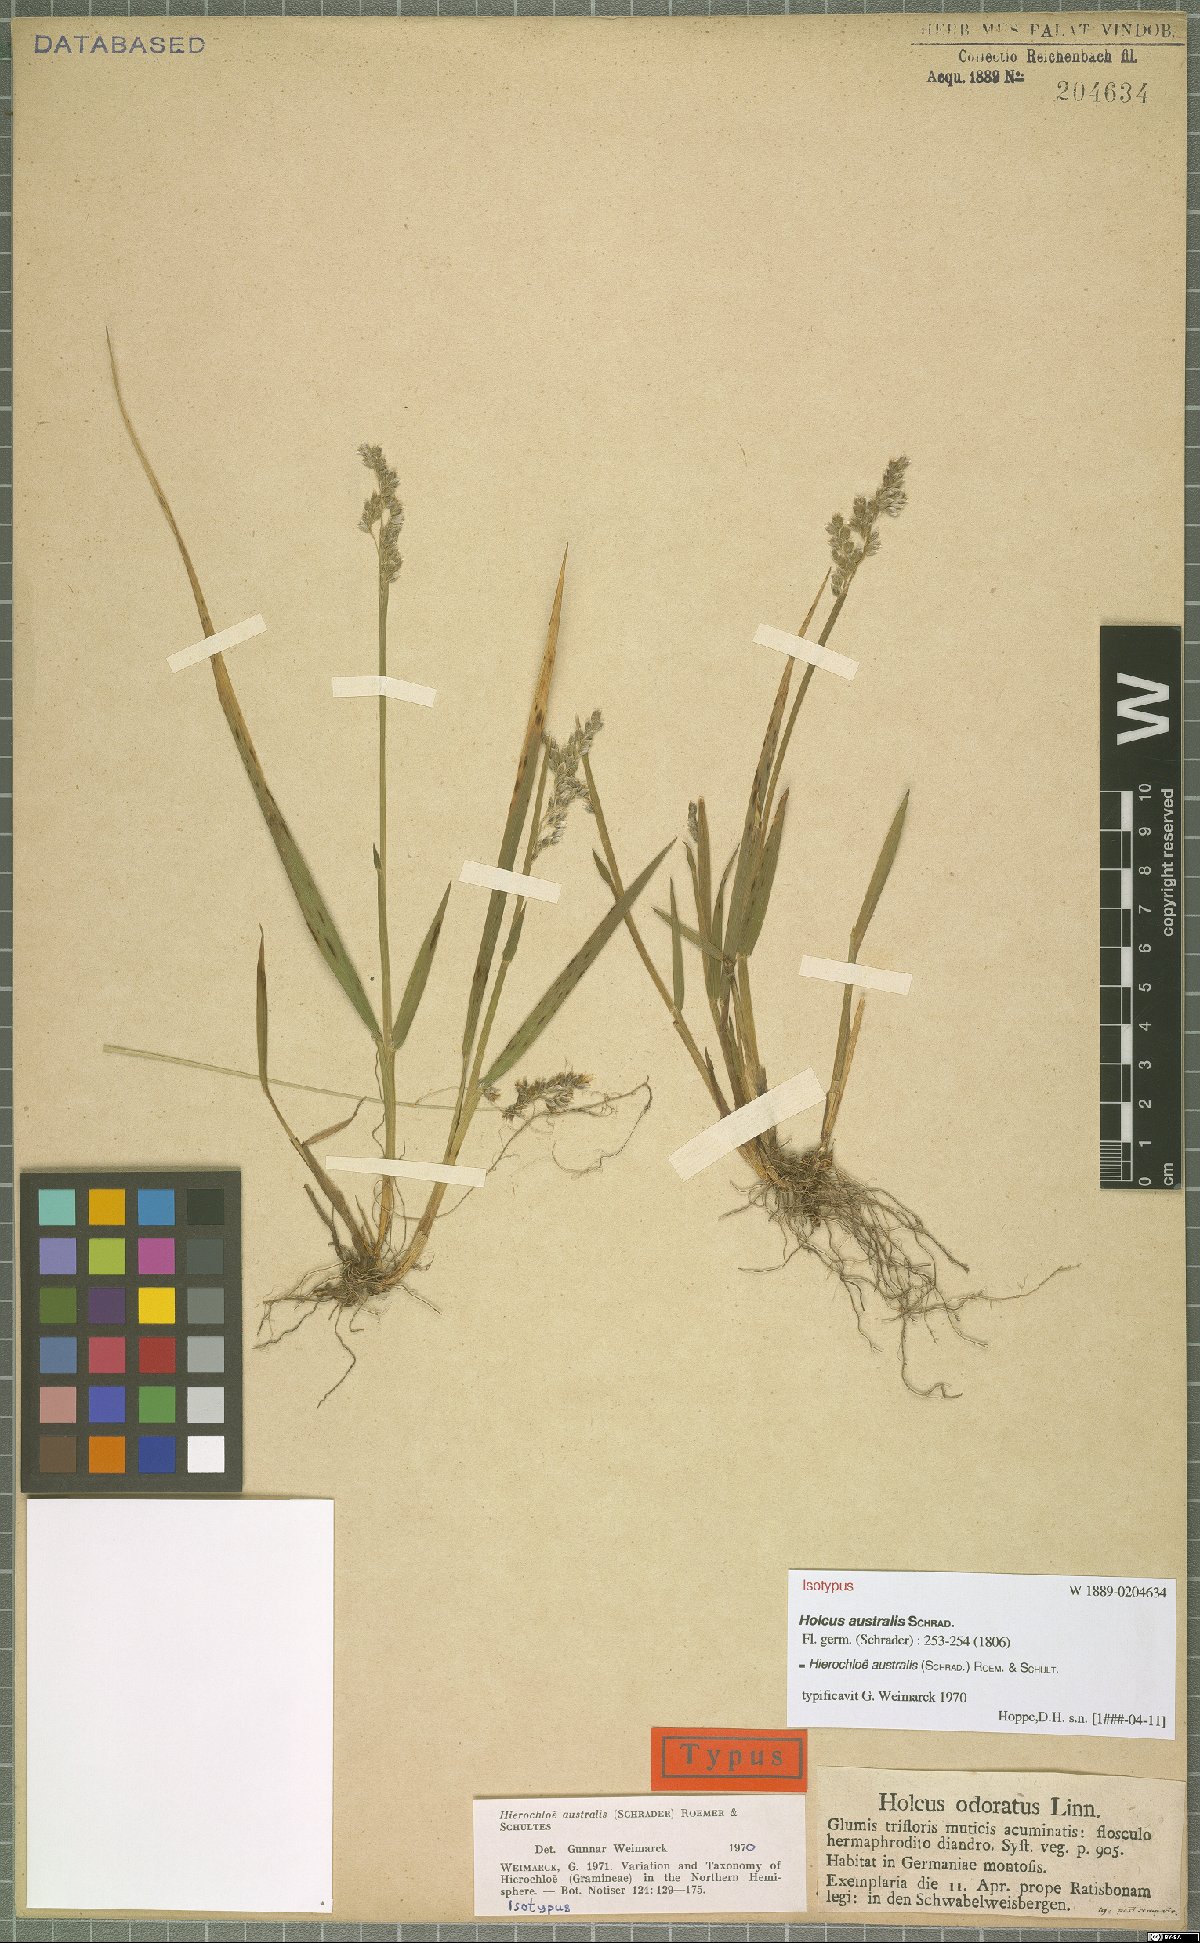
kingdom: Plantae
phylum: Tracheophyta
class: Liliopsida
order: Poales
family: Poaceae
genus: Anthoxanthum
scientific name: Anthoxanthum australe
